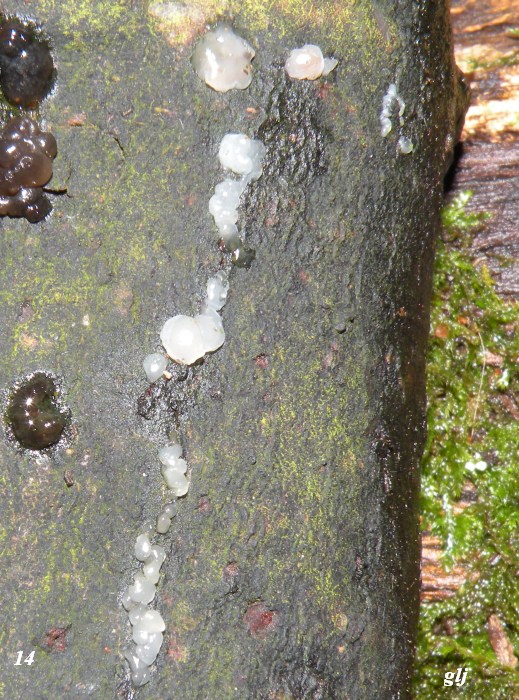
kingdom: Fungi
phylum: Basidiomycota
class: Agaricomycetes
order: Auriculariales
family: Hyaloriaceae
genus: Myxarium
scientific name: Myxarium nucleatum
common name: klar bævretop
